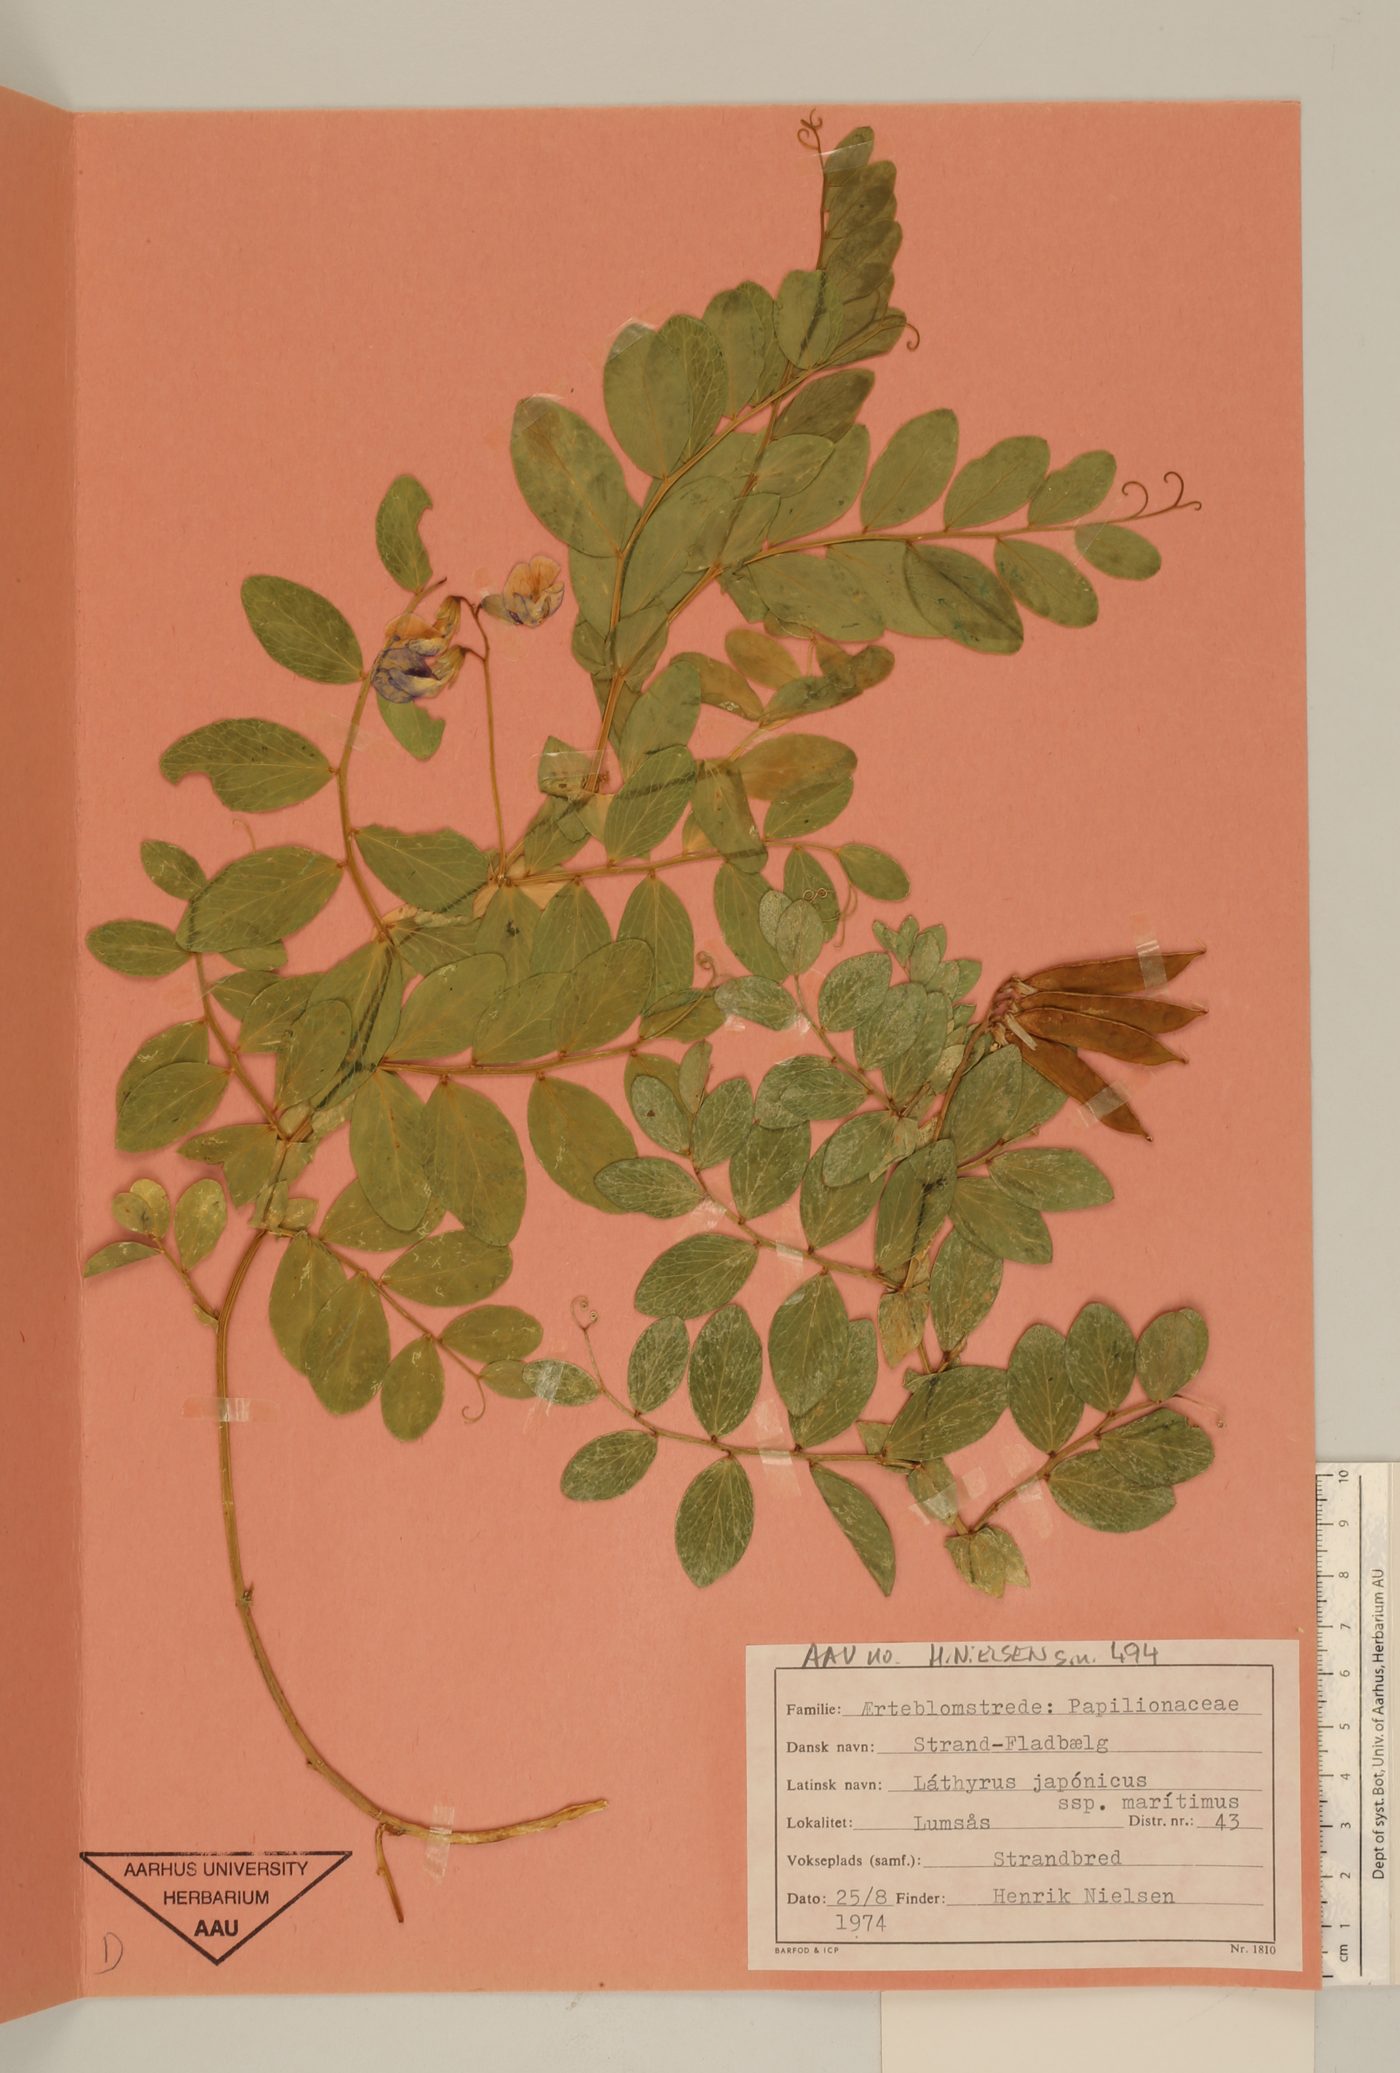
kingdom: Plantae
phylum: Tracheophyta
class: Magnoliopsida
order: Fabales
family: Fabaceae
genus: Lathyrus
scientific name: Lathyrus japonicus
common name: Sea pea
